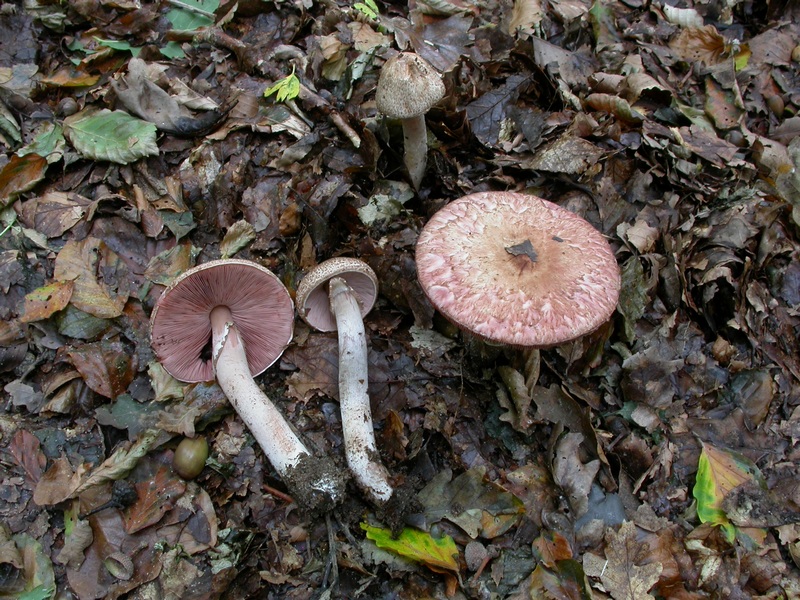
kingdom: Fungi
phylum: Basidiomycota
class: Agaricomycetes
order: Agaricales
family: Agaricaceae
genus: Agaricus
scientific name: Agaricus langei
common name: stor blod-champignon
